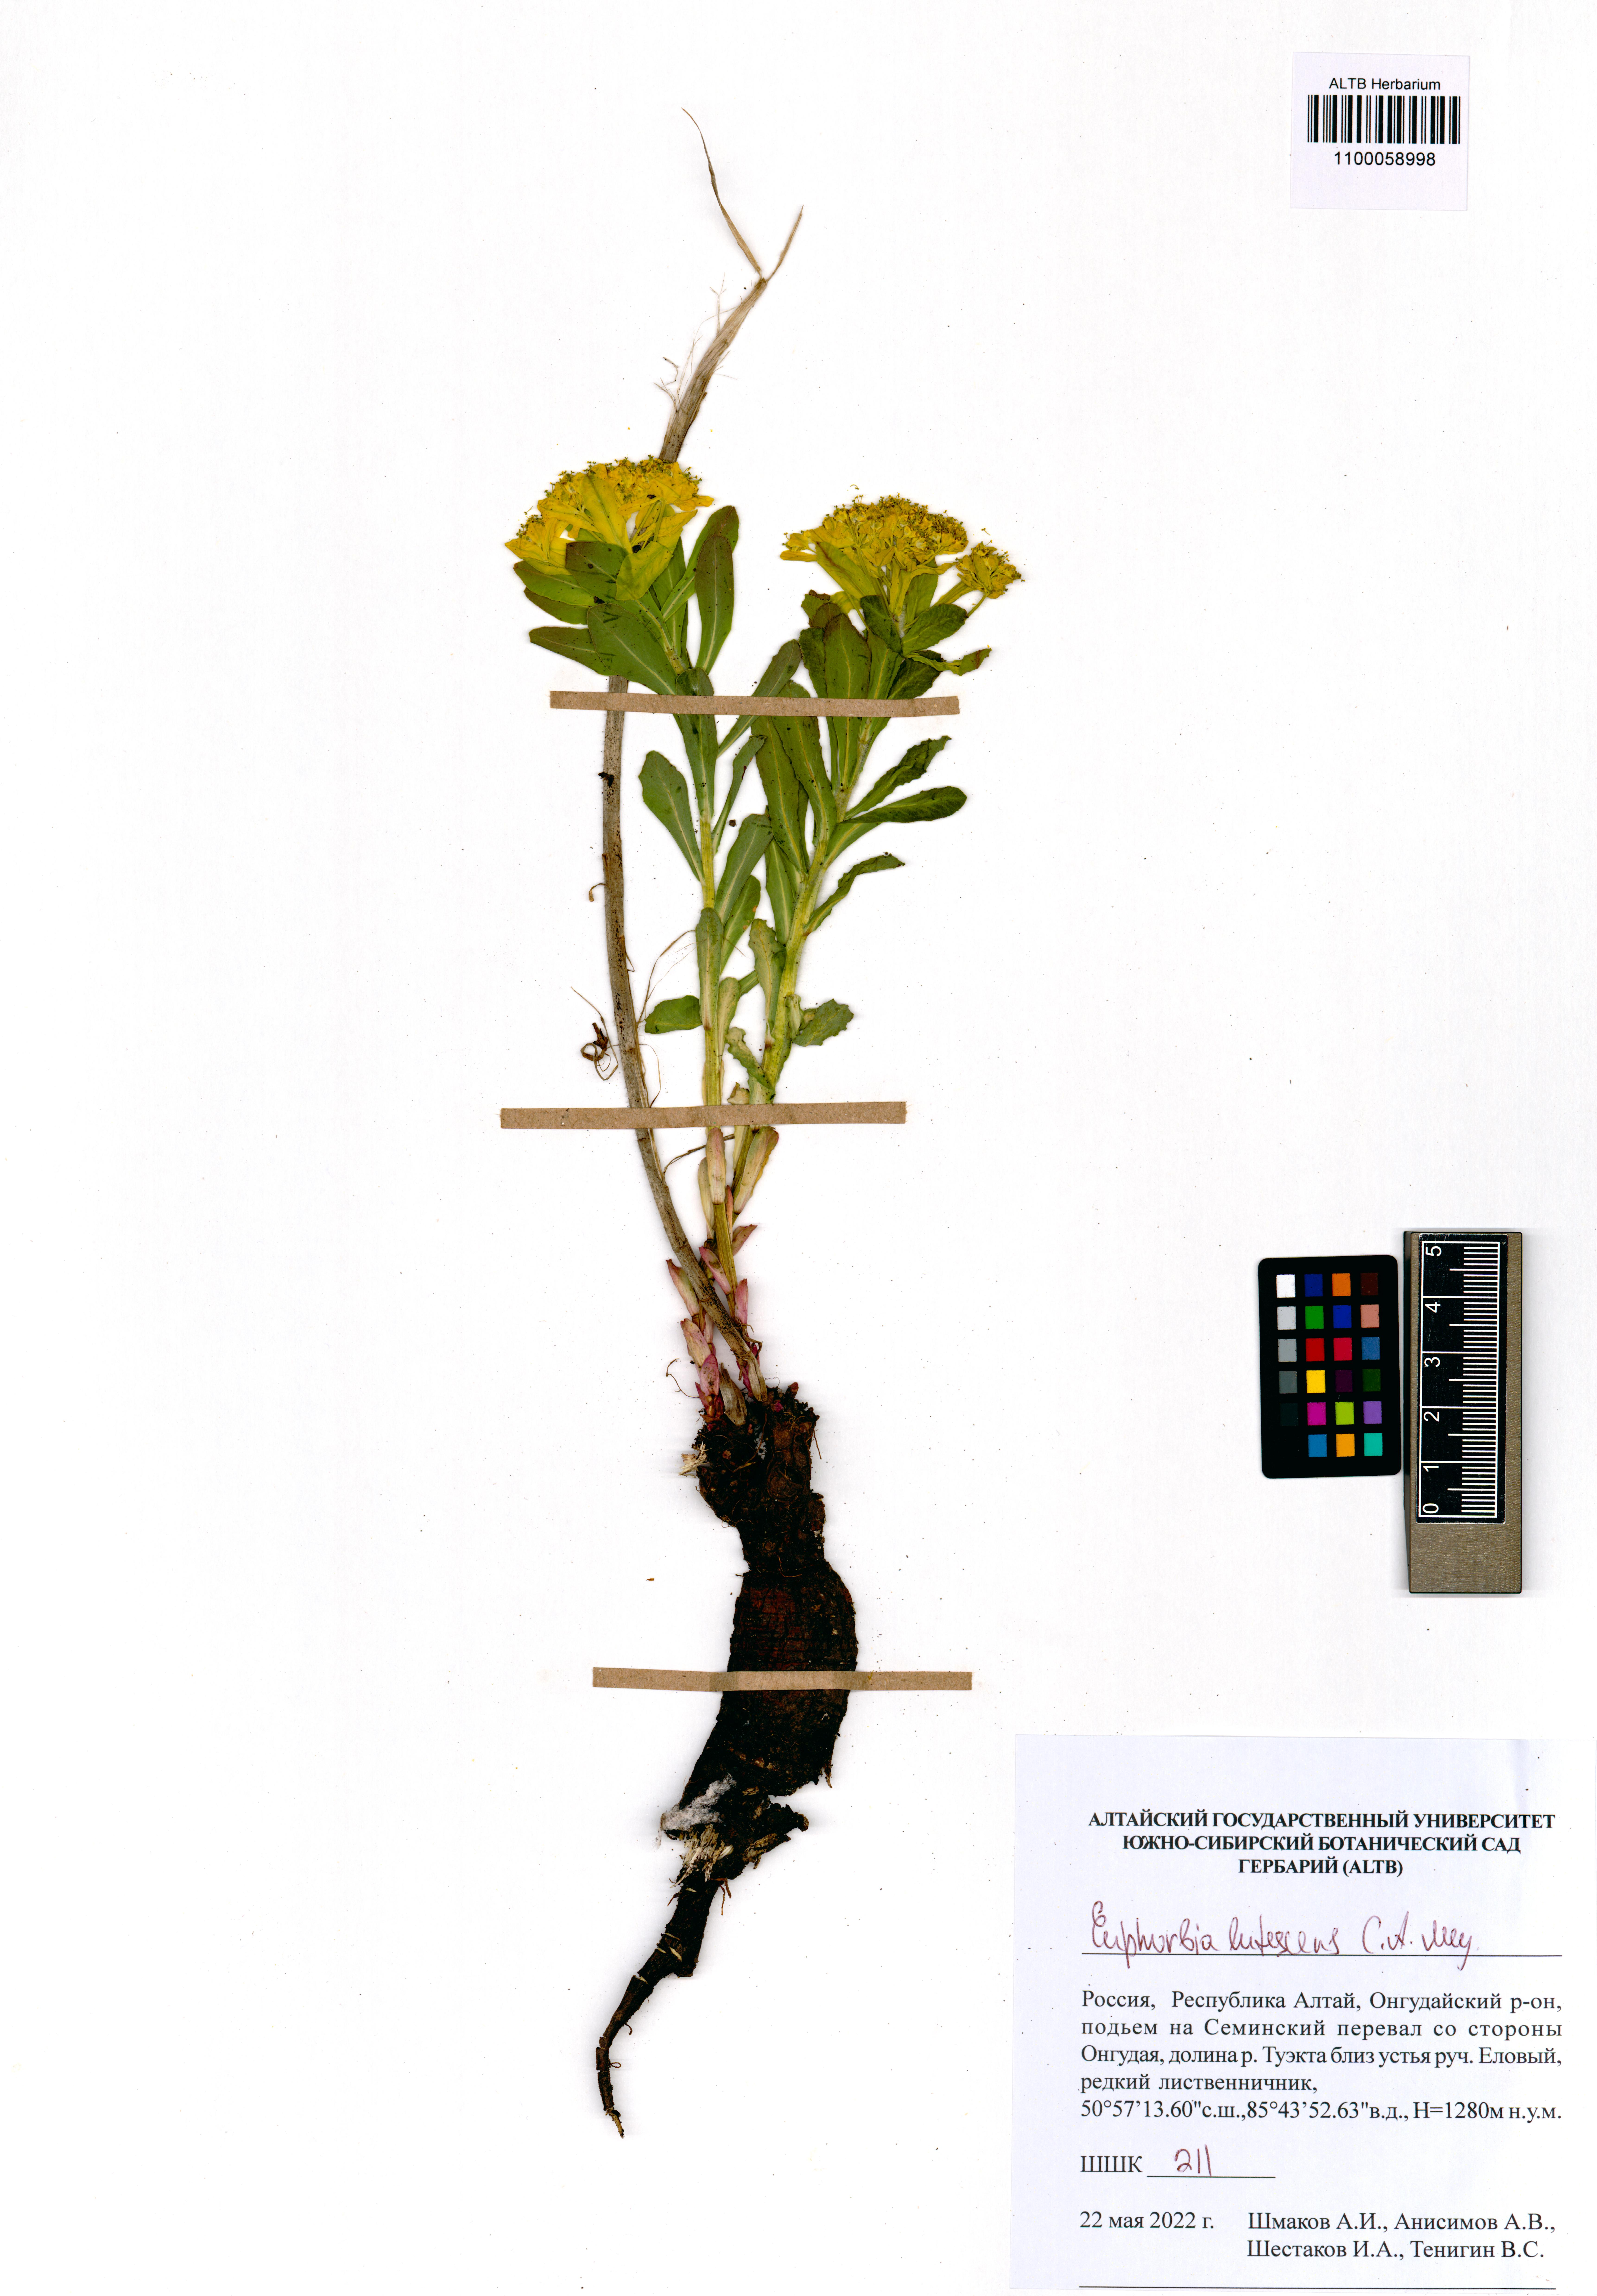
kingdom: Plantae
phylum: Tracheophyta
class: Magnoliopsida
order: Malpighiales
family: Euphorbiaceae
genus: Euphorbia
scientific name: Euphorbia pilosa
